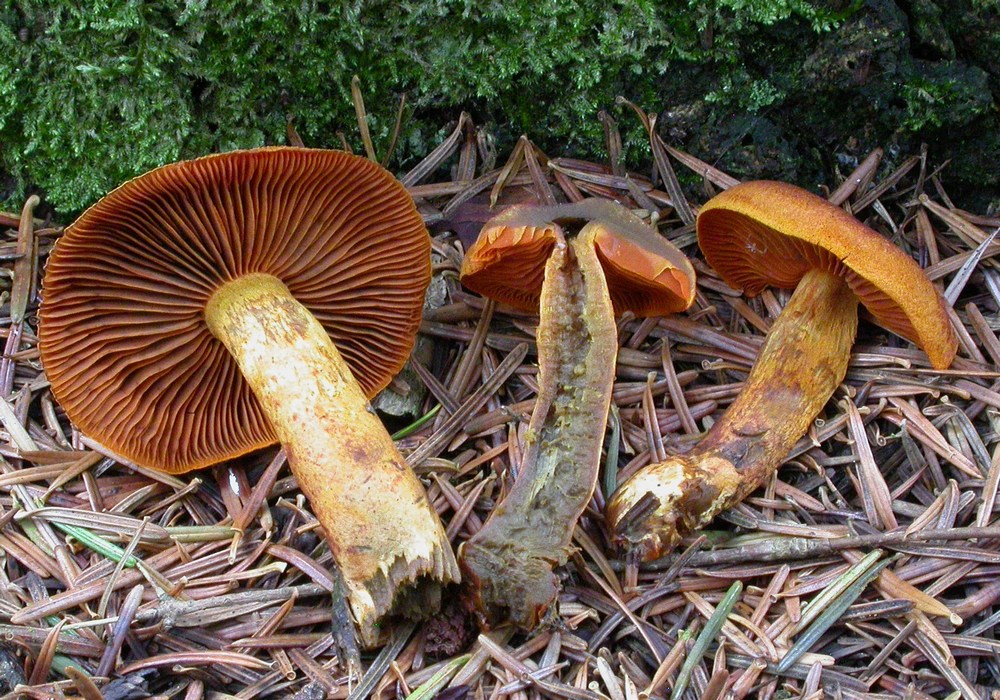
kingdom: Fungi
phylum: Basidiomycota
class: Agaricomycetes
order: Agaricales
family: Cortinariaceae
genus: Cortinarius
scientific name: Cortinarius malicorius
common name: grønkødet slørhat
